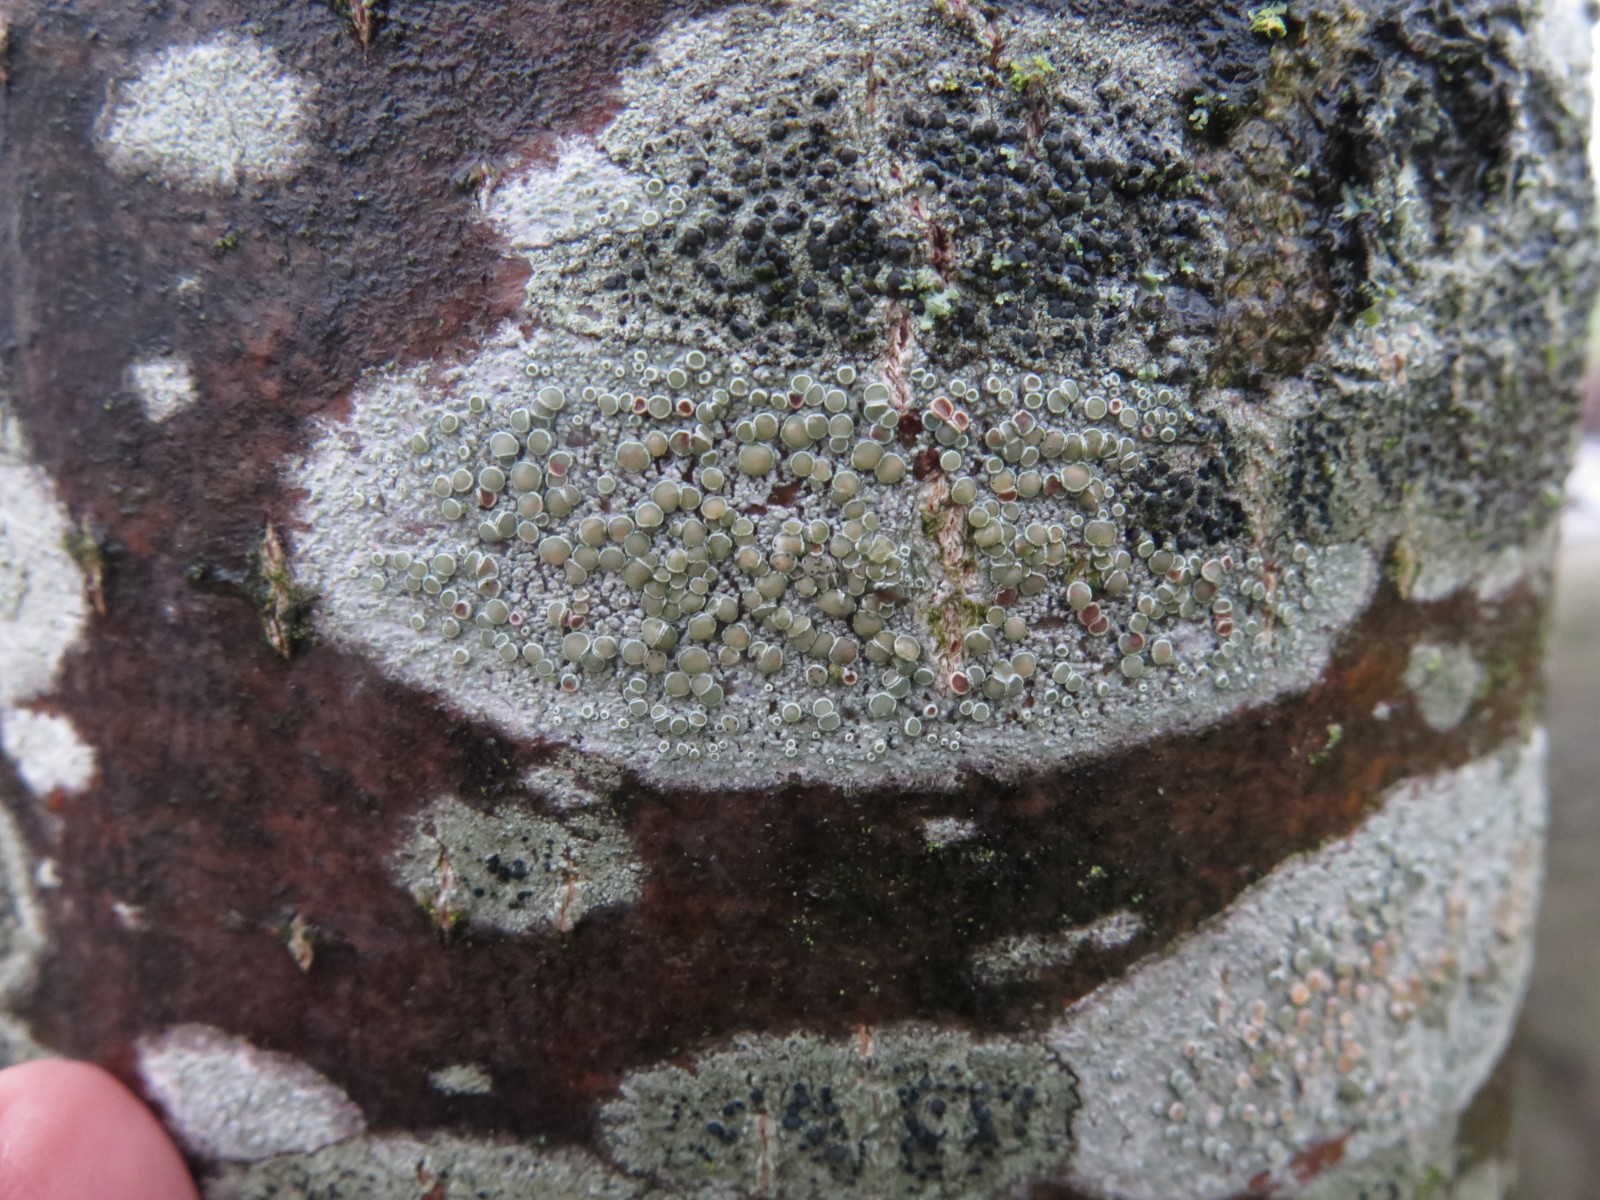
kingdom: Fungi
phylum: Ascomycota
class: Lecanoromycetes
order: Lecanorales
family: Lecanoraceae
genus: Lecanora
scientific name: Lecanora chlarotera
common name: brun kantskivelav
